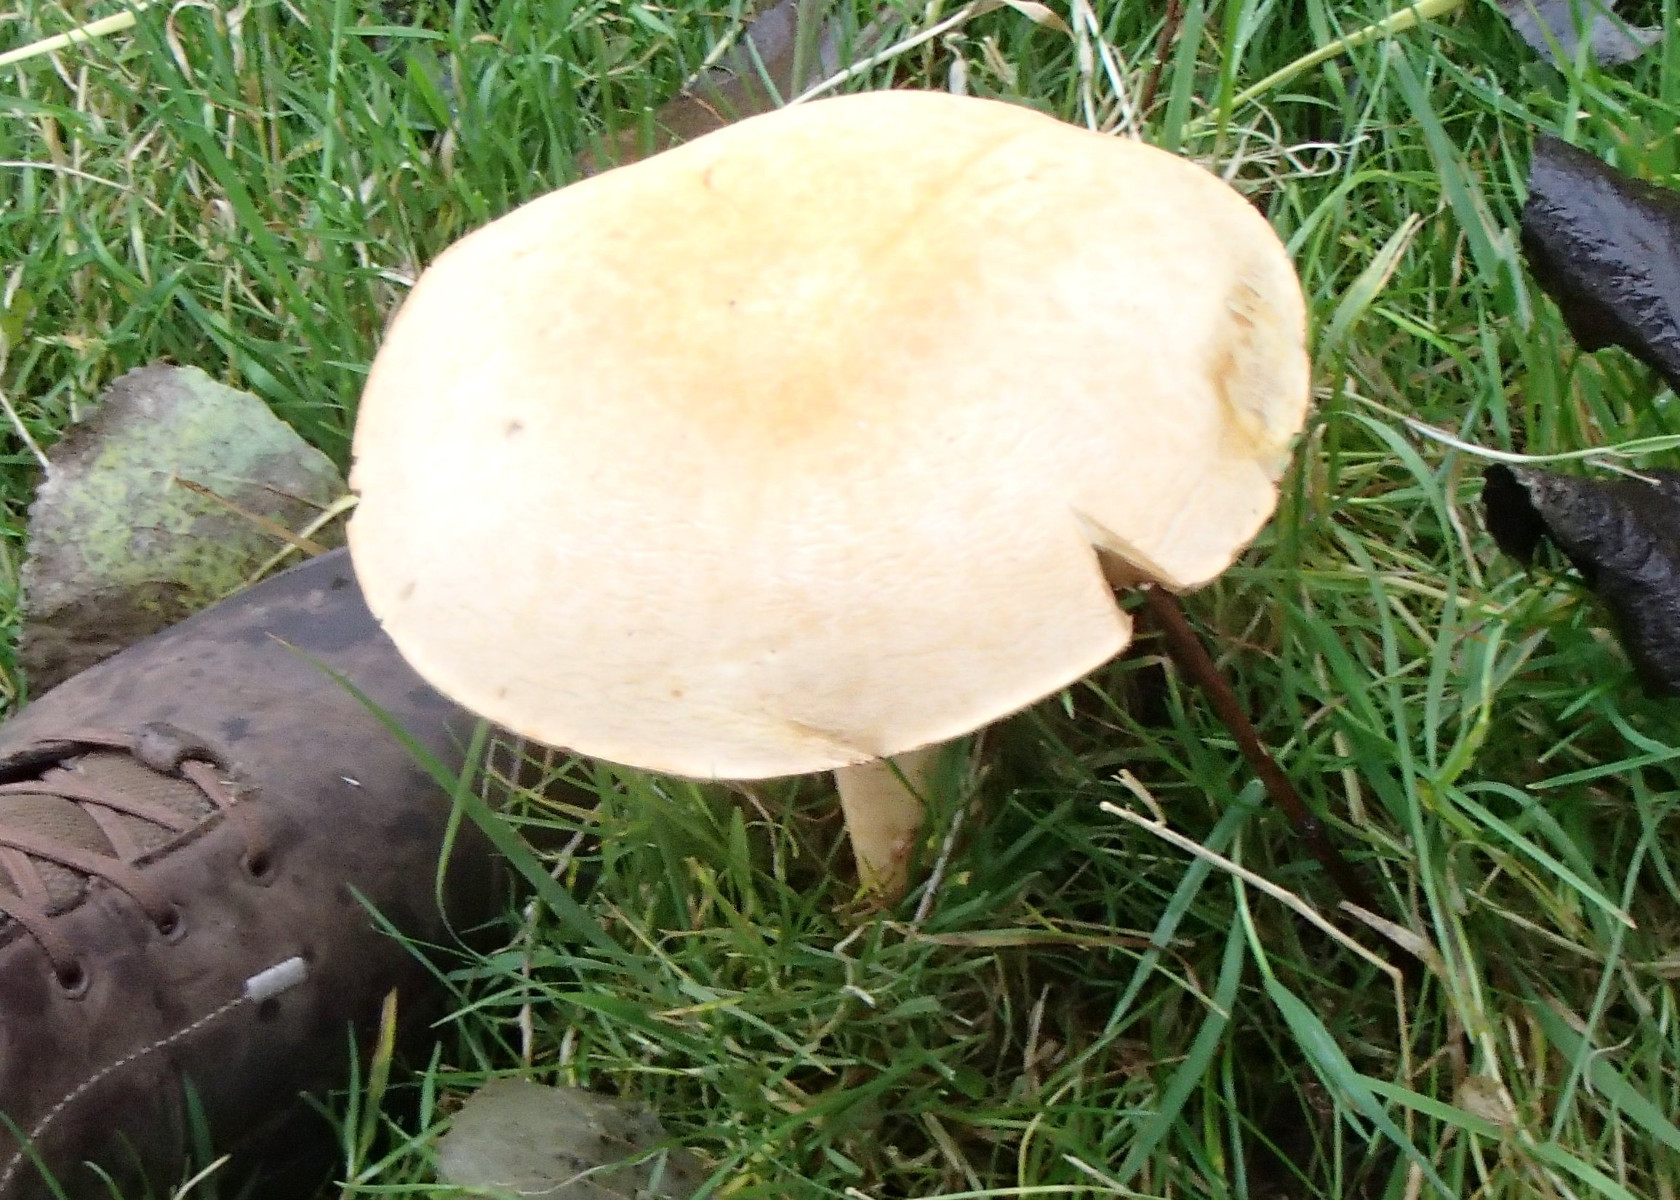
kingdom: Fungi
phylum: Basidiomycota
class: Agaricomycetes
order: Agaricales
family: Tricholomataceae
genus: Phaeolepiota
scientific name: Phaeolepiota aurea
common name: gyldenhat
